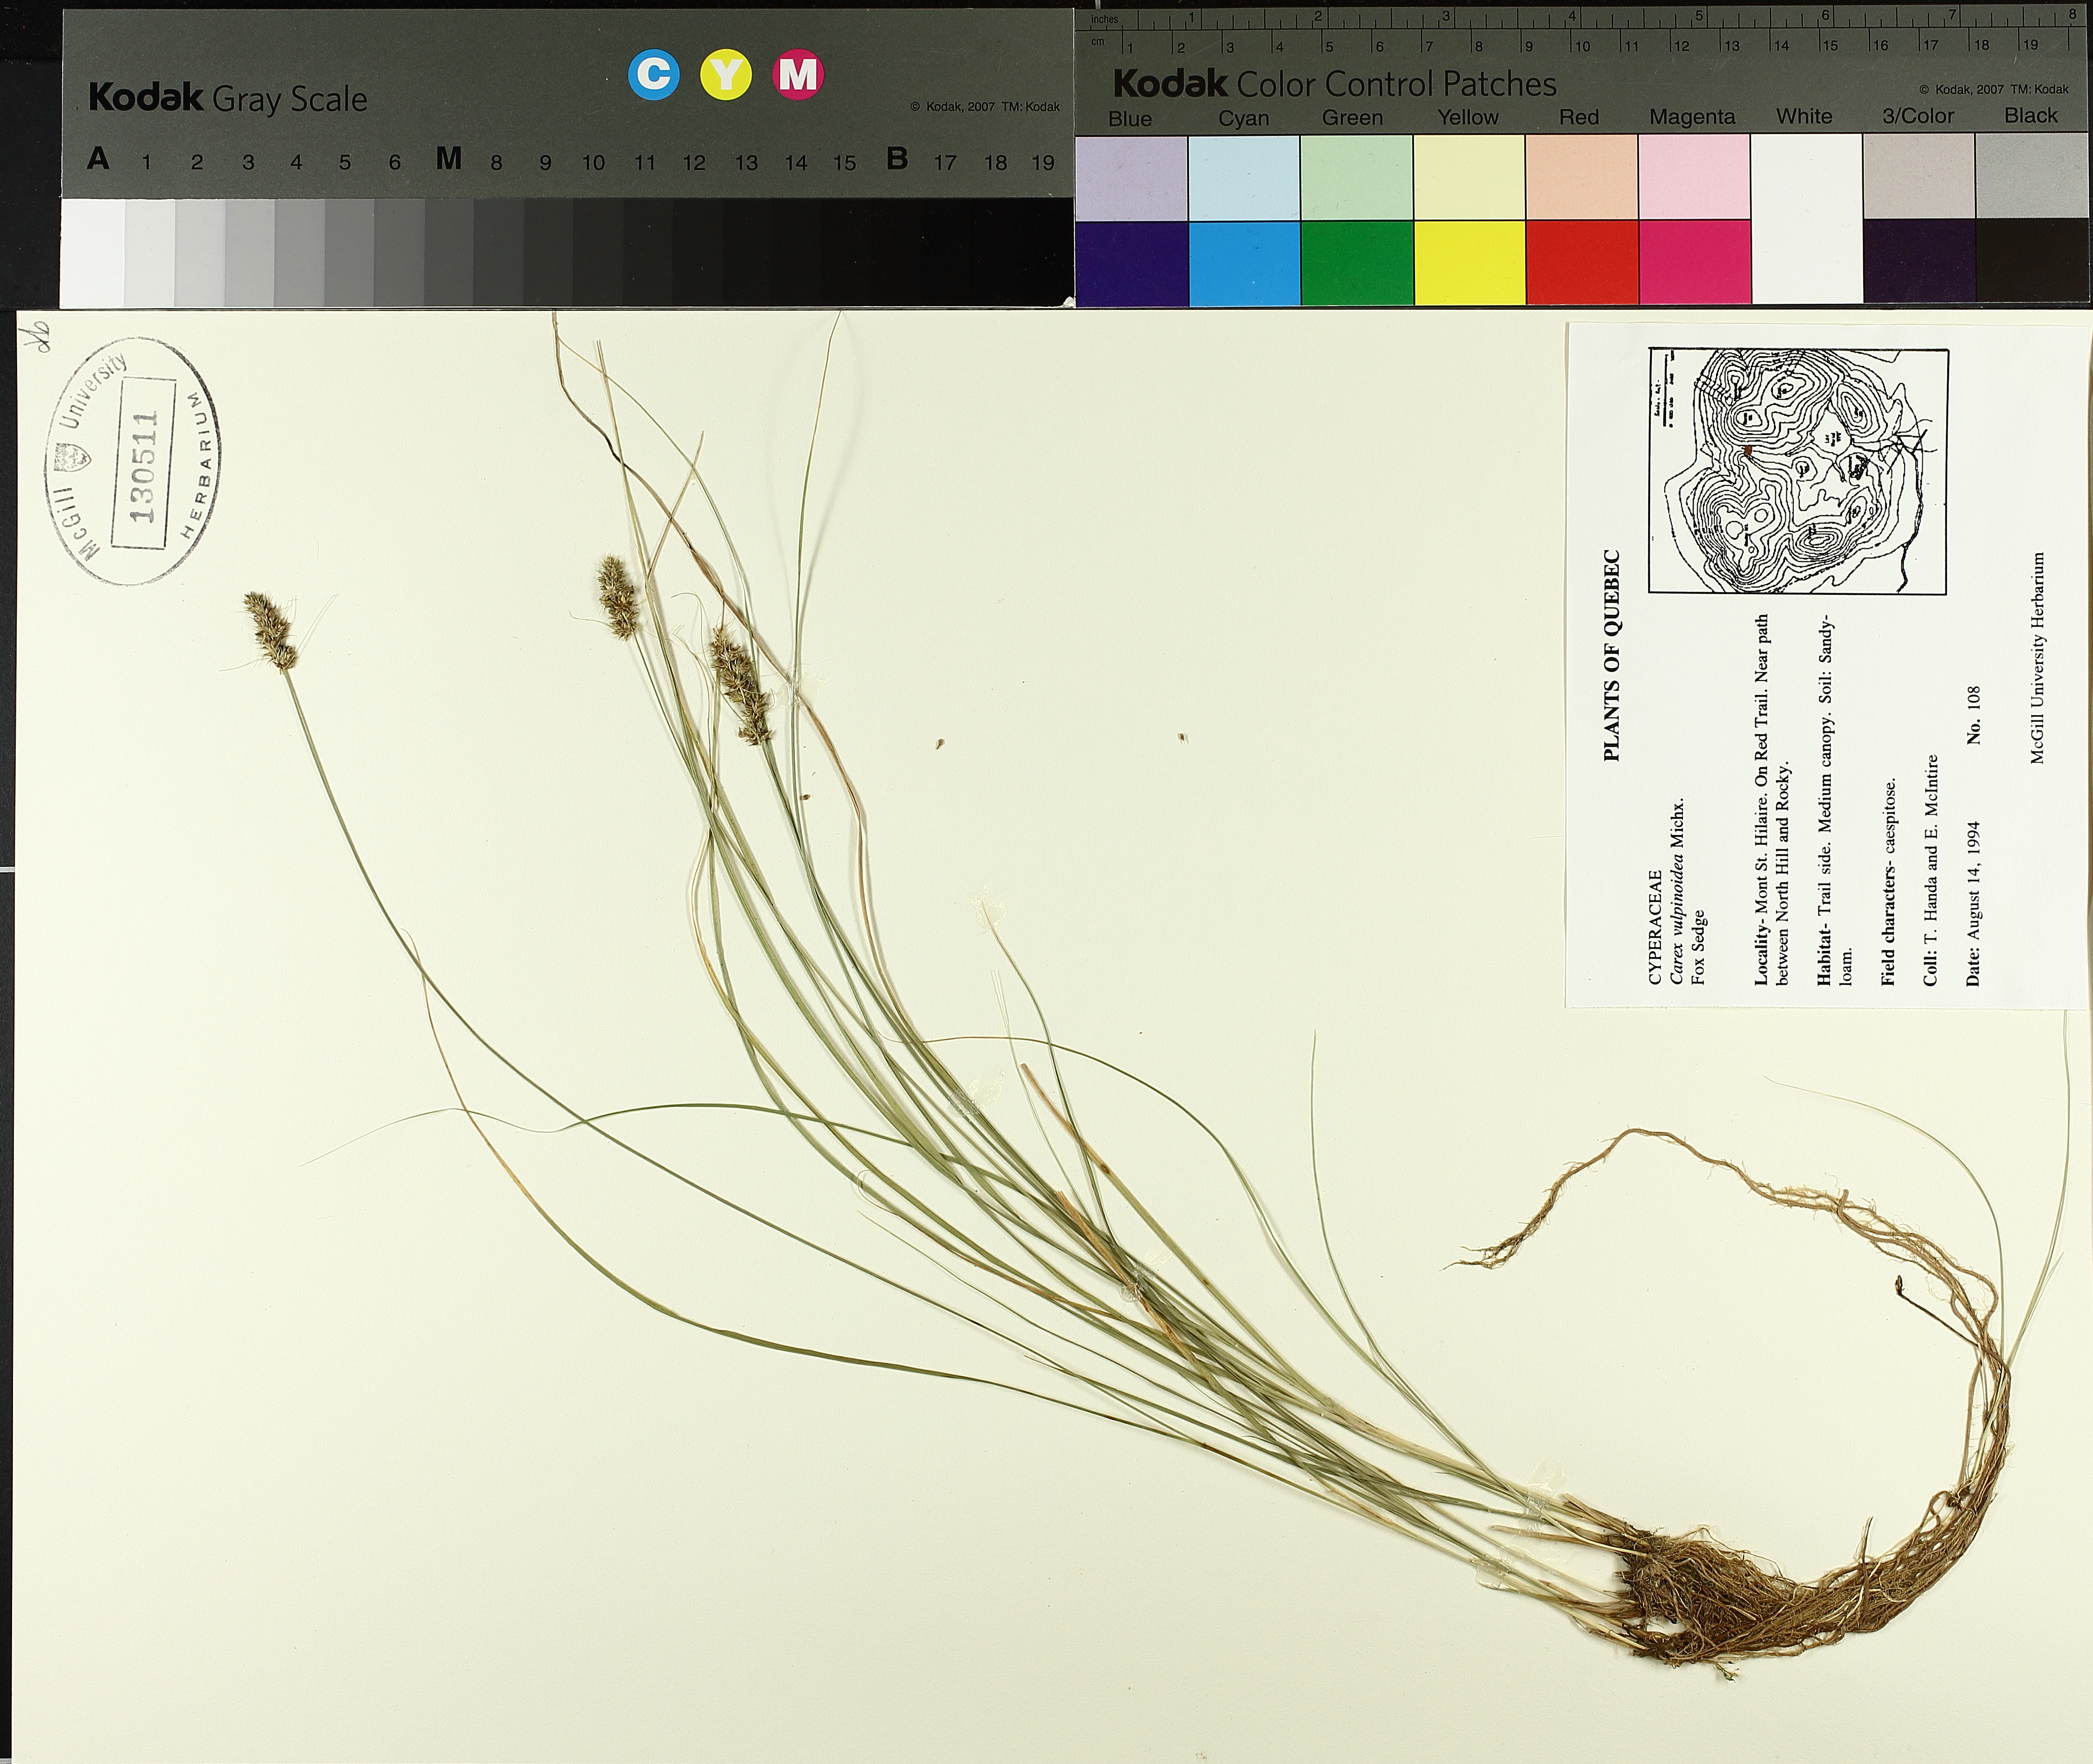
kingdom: Plantae
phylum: Tracheophyta
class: Liliopsida
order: Poales
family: Cyperaceae
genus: Carex
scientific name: Carex vulpinoidea
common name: American fox-sedge
